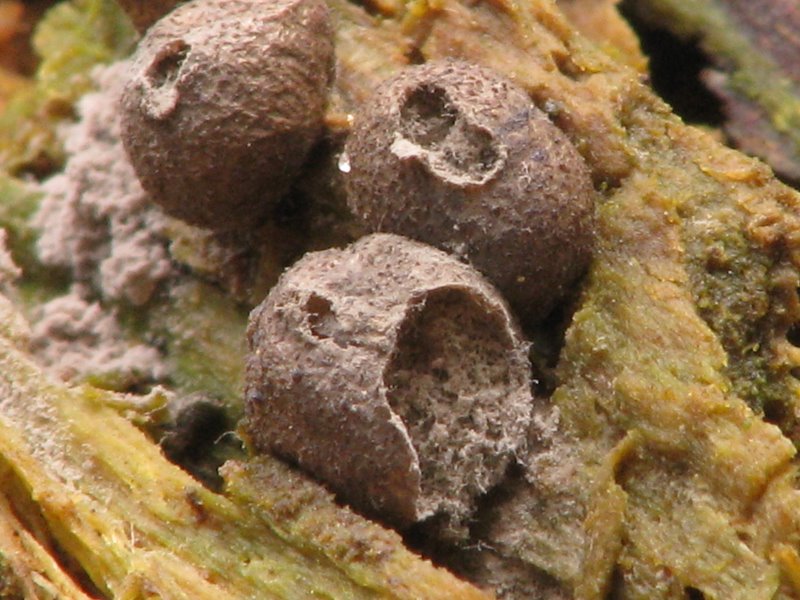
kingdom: Protozoa
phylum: Mycetozoa
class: Myxomycetes
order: Cribrariales
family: Tubiferaceae
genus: Lycogala
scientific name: Lycogala epidendrum
